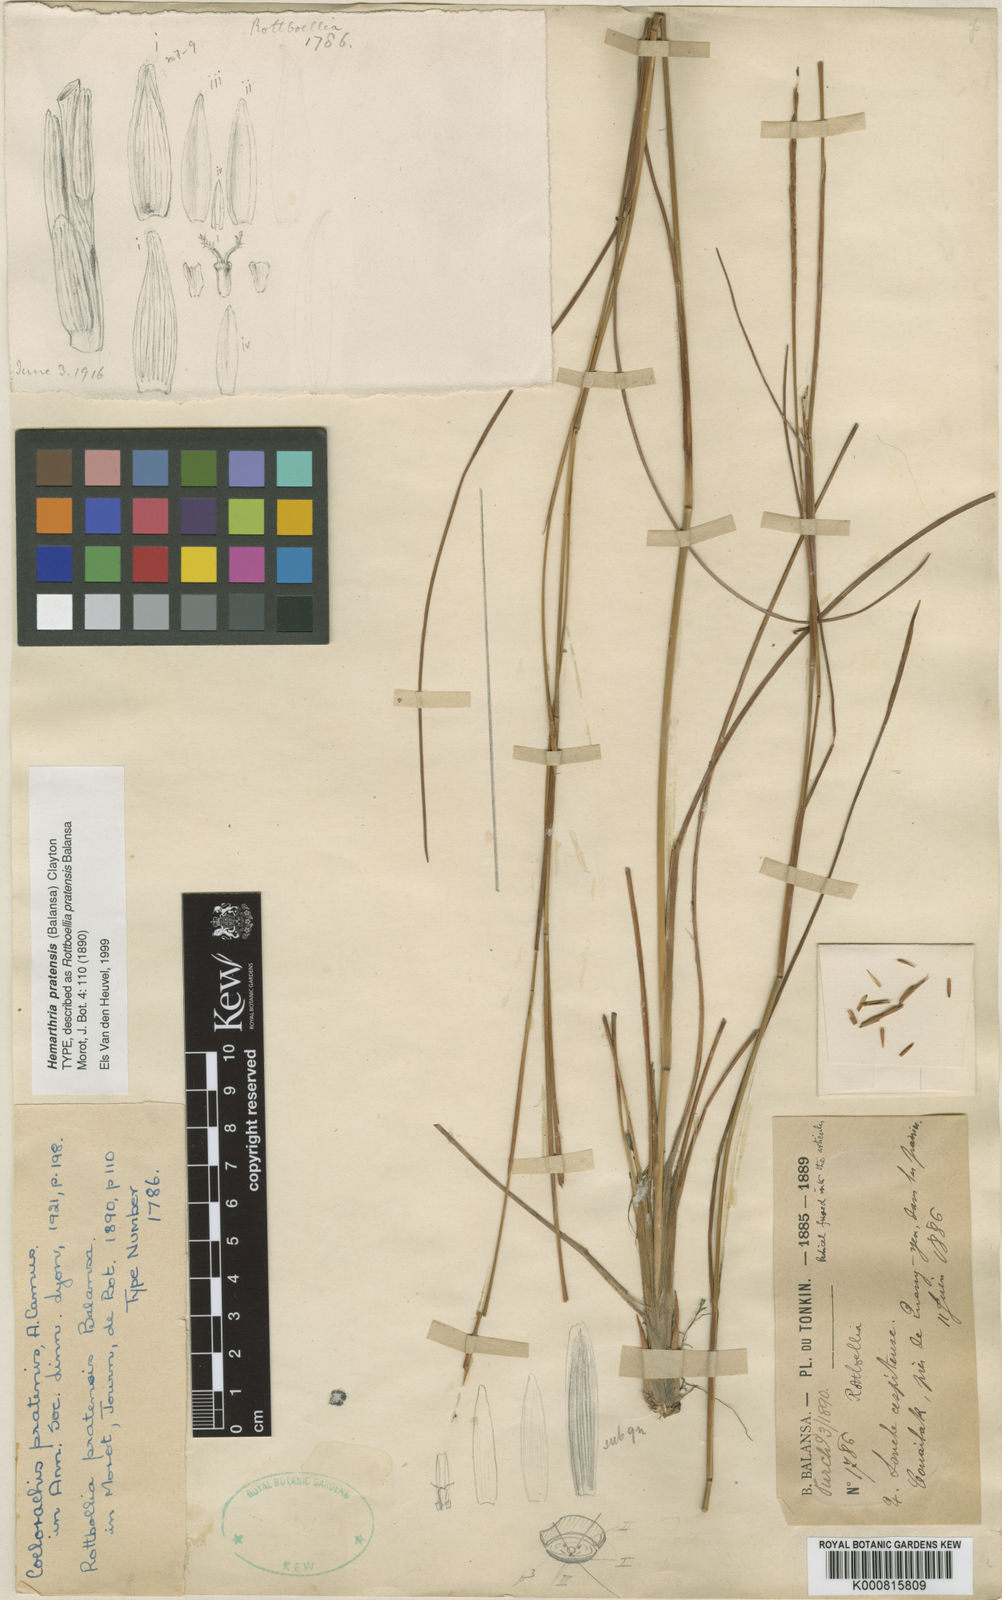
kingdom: Plantae
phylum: Tracheophyta
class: Liliopsida
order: Poales
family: Poaceae
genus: Hemarthria
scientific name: Hemarthria pratensis
